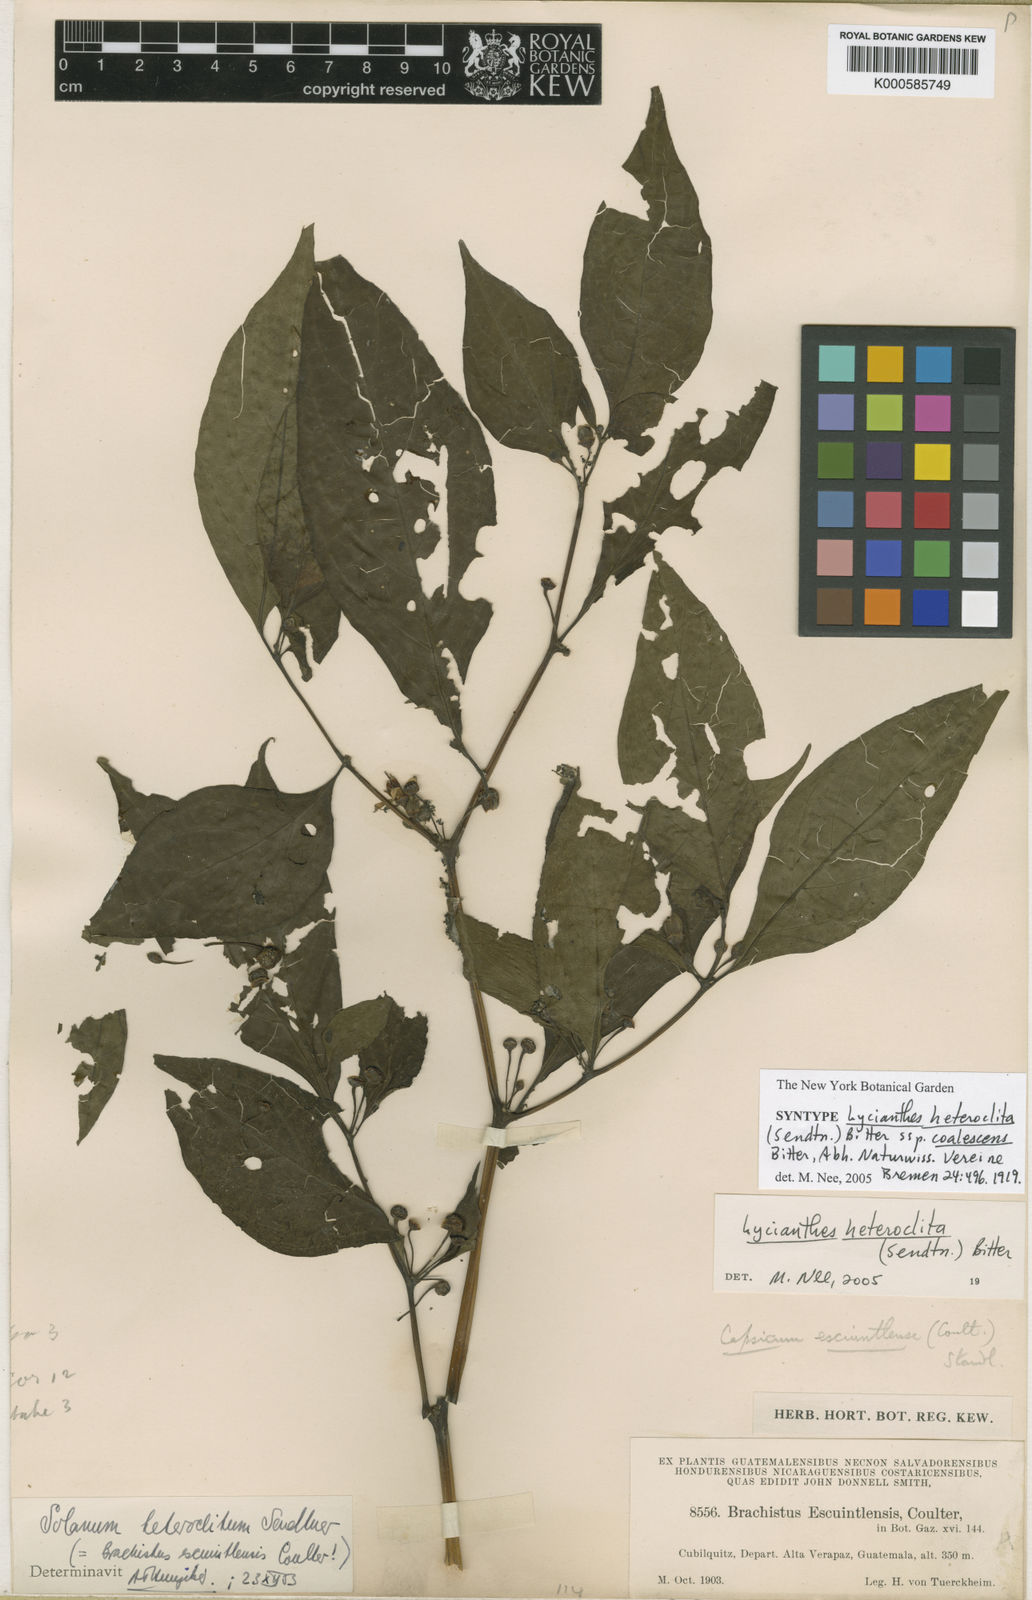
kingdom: Plantae
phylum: Tracheophyta
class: Magnoliopsida
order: Solanales
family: Solanaceae
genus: Lycianthes
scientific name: Lycianthes heteroclita
